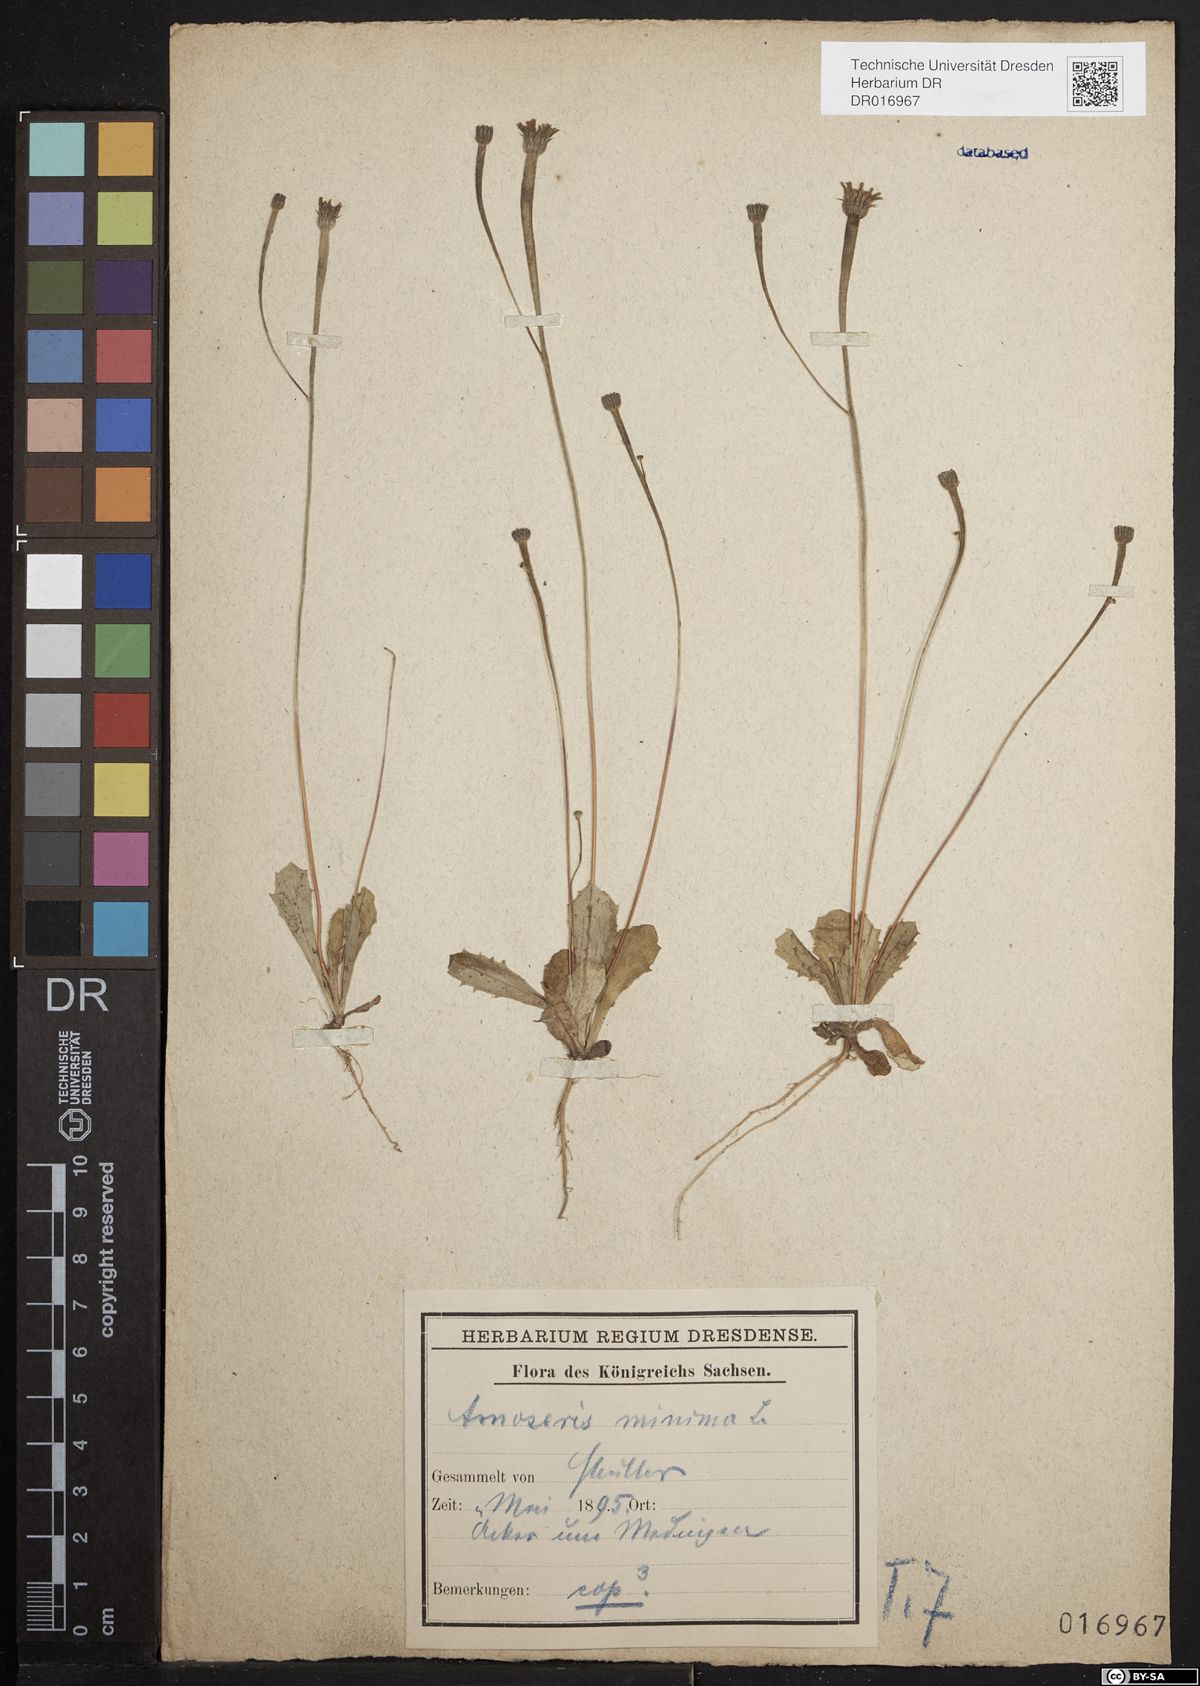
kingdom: Plantae
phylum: Tracheophyta
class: Magnoliopsida
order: Asterales
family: Asteraceae
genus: Arnoseris
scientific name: Arnoseris minima
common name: Lamb's succory
